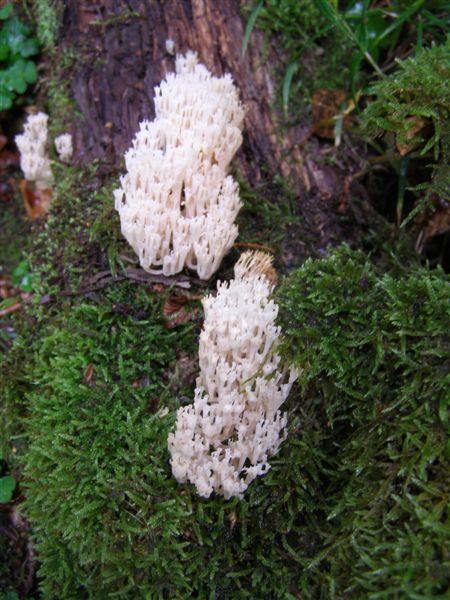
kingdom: Fungi
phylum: Basidiomycota
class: Agaricomycetes
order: Russulales
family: Auriscalpiaceae
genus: Artomyces
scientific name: Artomyces pyxidatus
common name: kandelabersvamp
